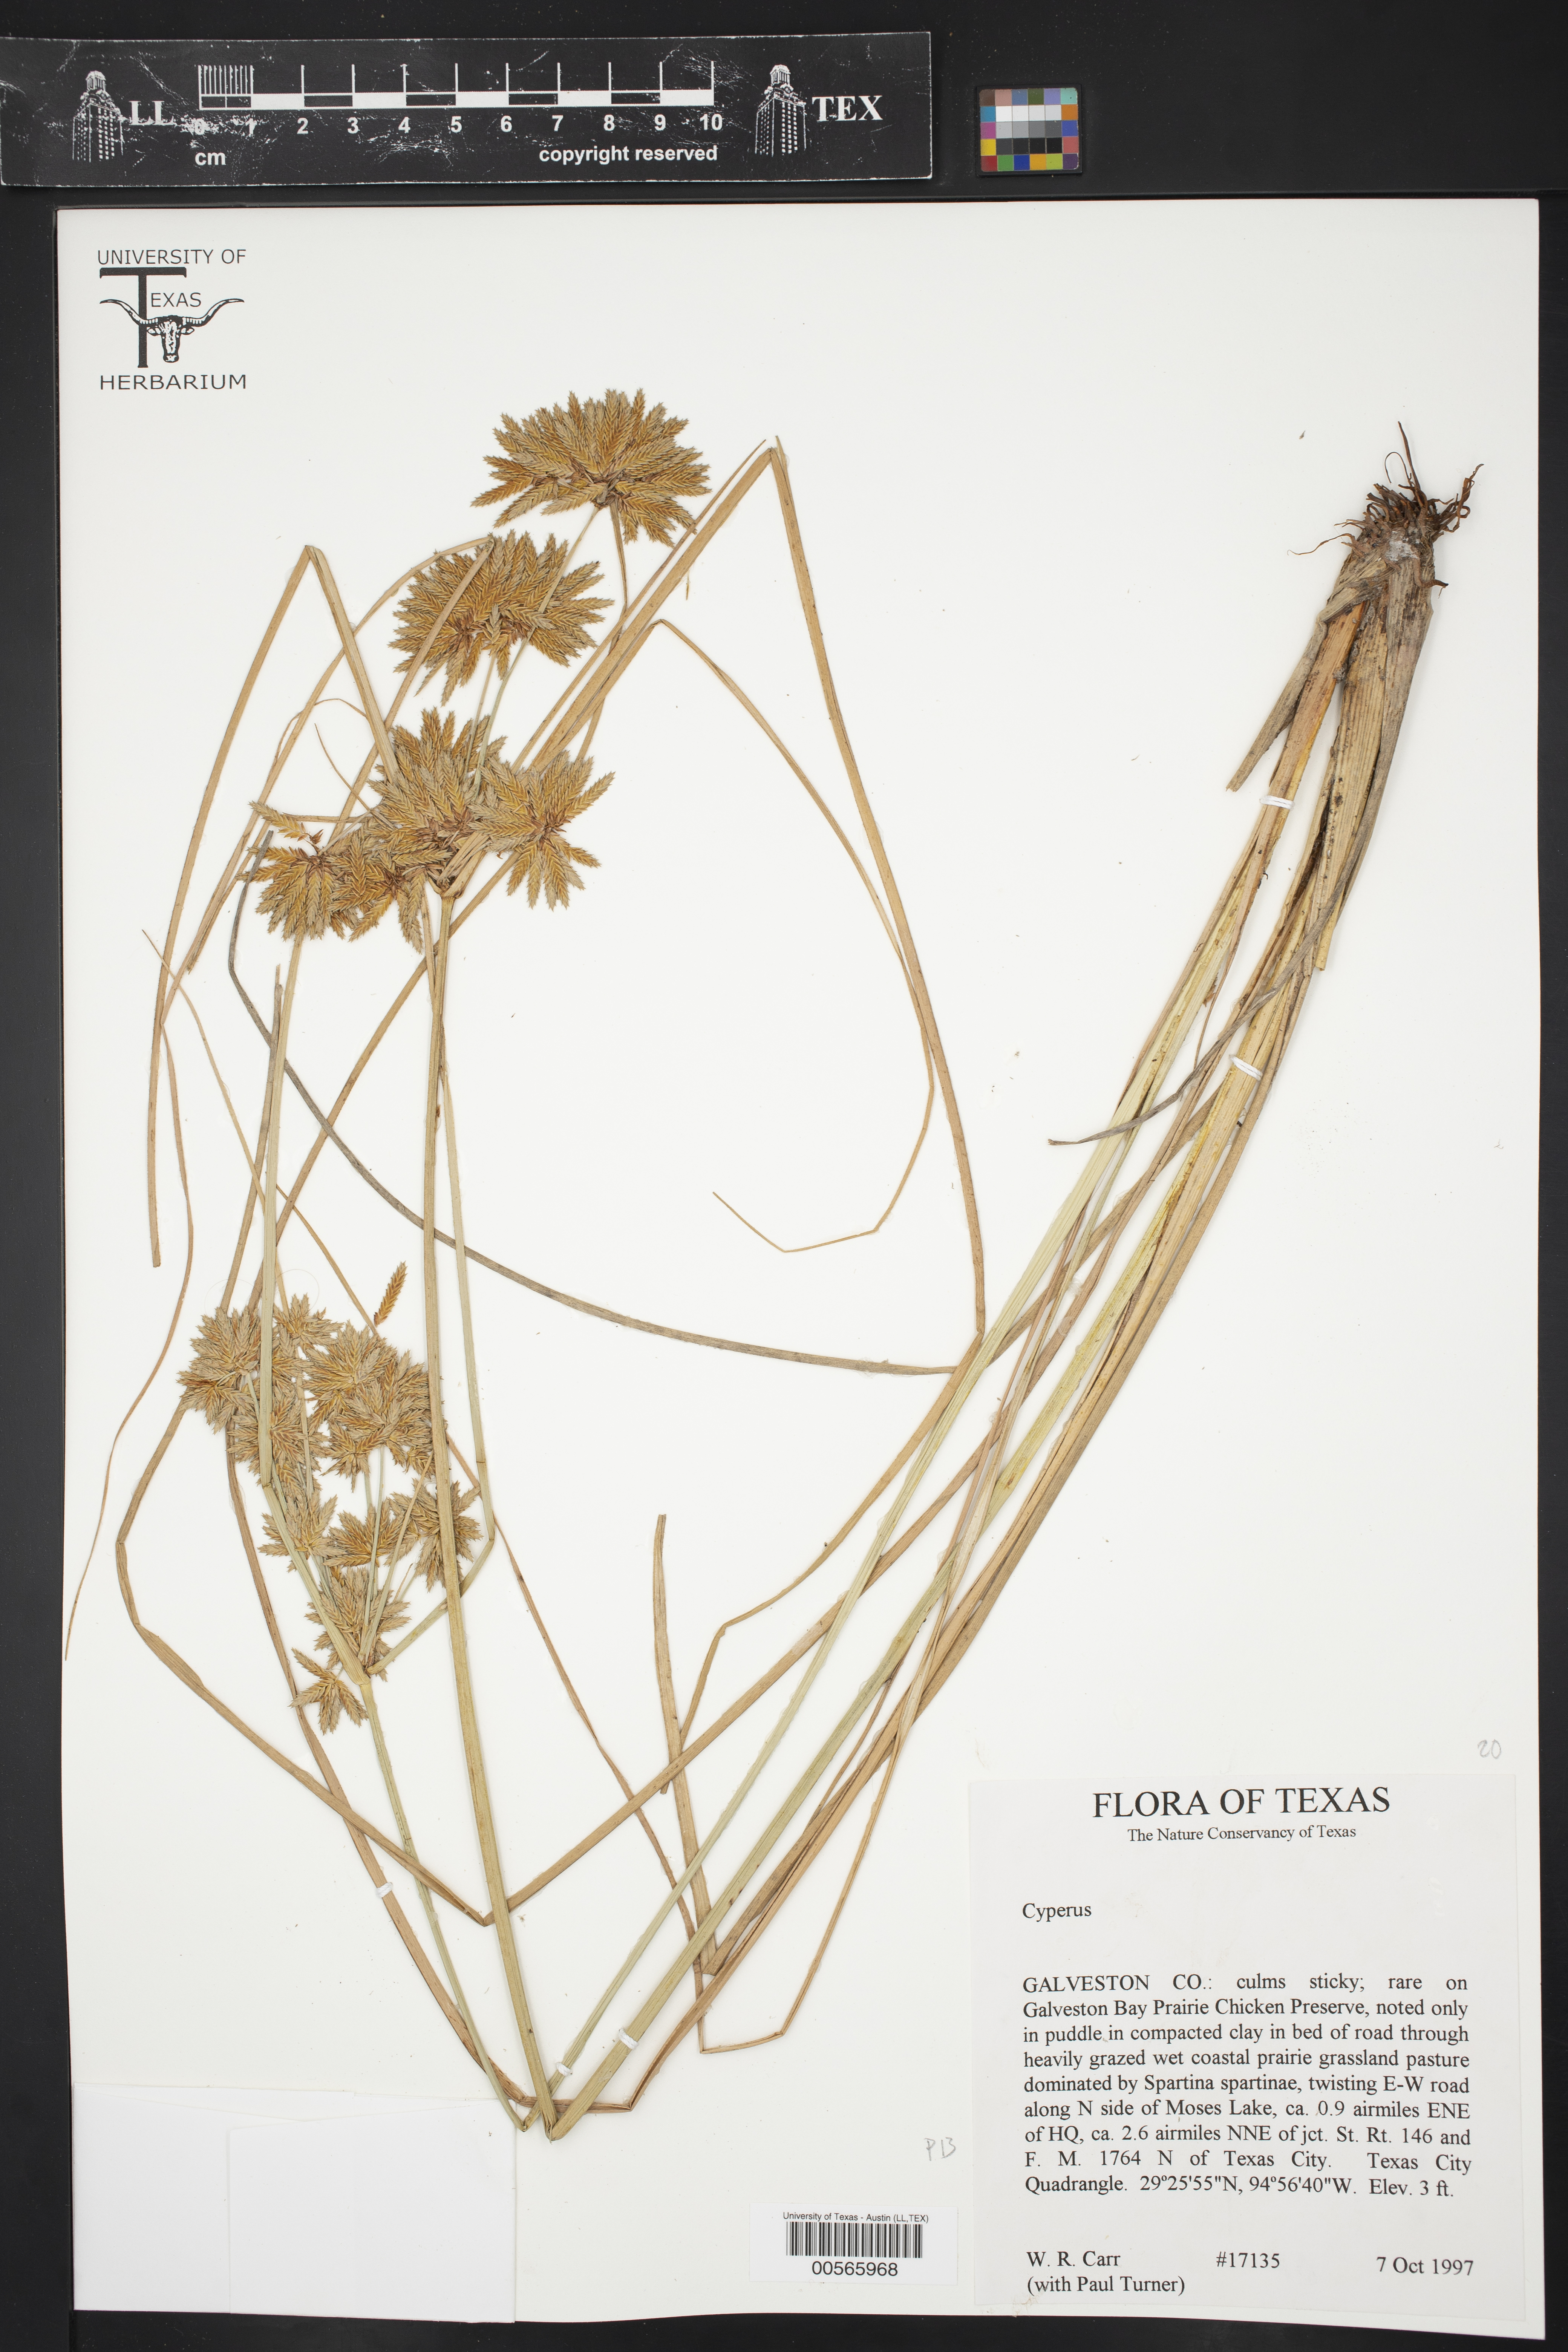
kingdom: Plantae
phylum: Tracheophyta
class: Liliopsida
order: Poales
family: Cyperaceae
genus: Cyperus
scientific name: Cyperus
